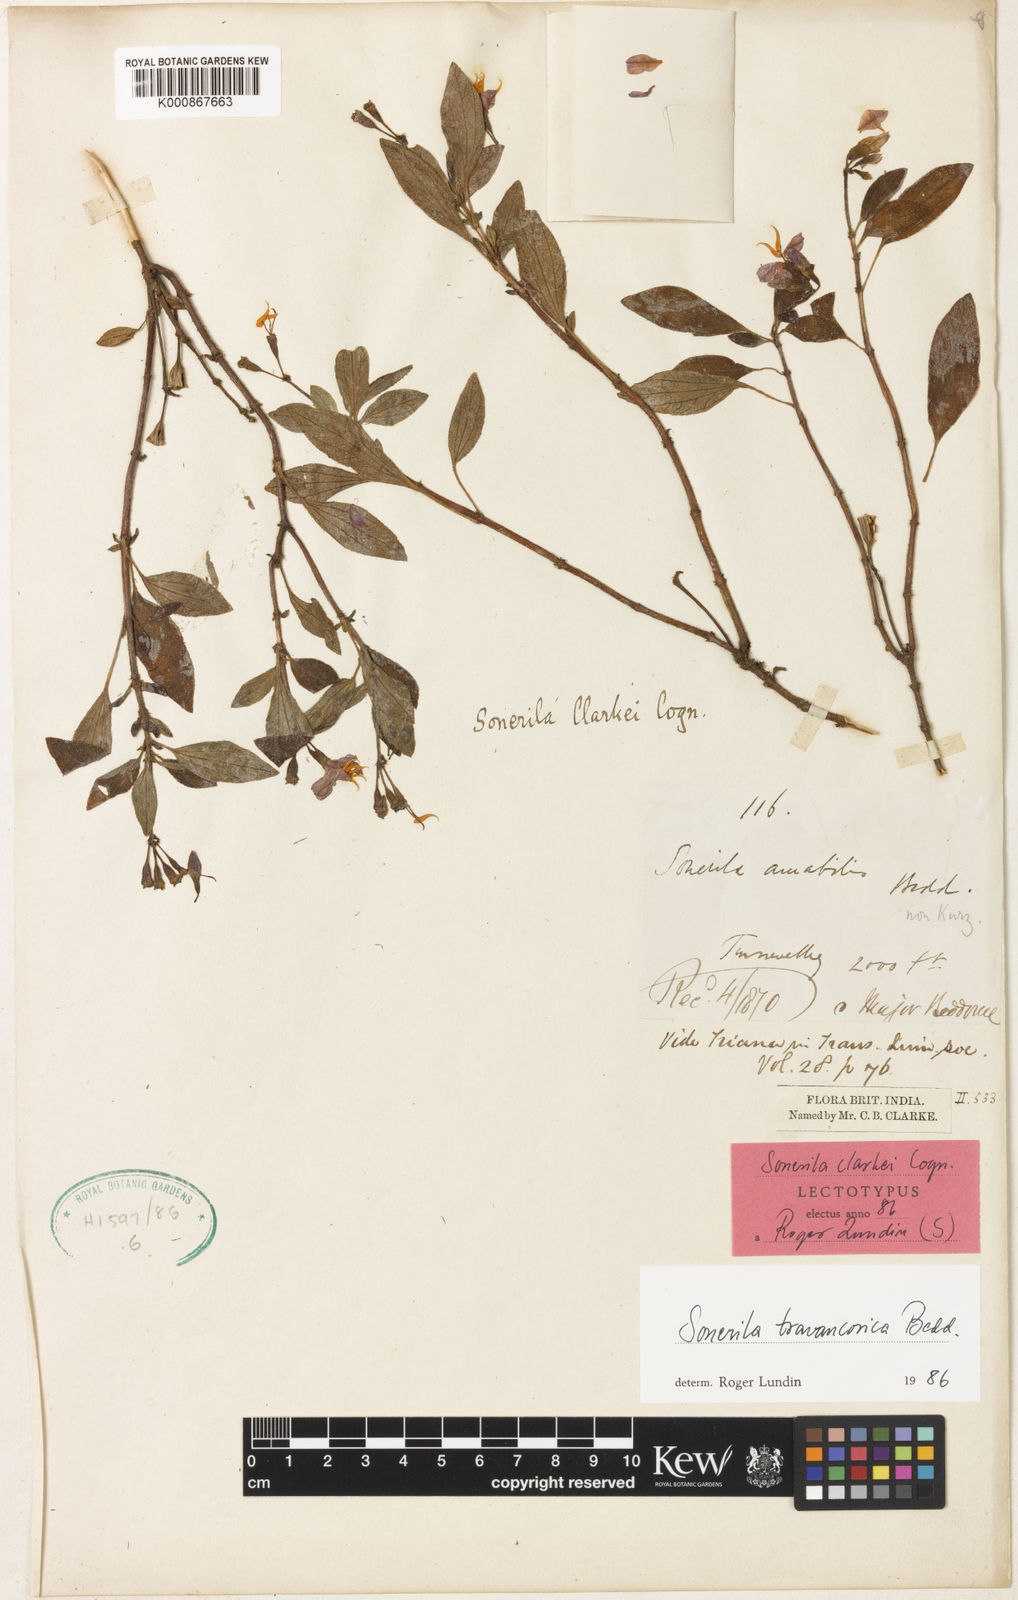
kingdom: Plantae
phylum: Tracheophyta
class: Magnoliopsida
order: Myrtales
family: Melastomataceae
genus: Sonerila
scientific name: Sonerila travancorica
